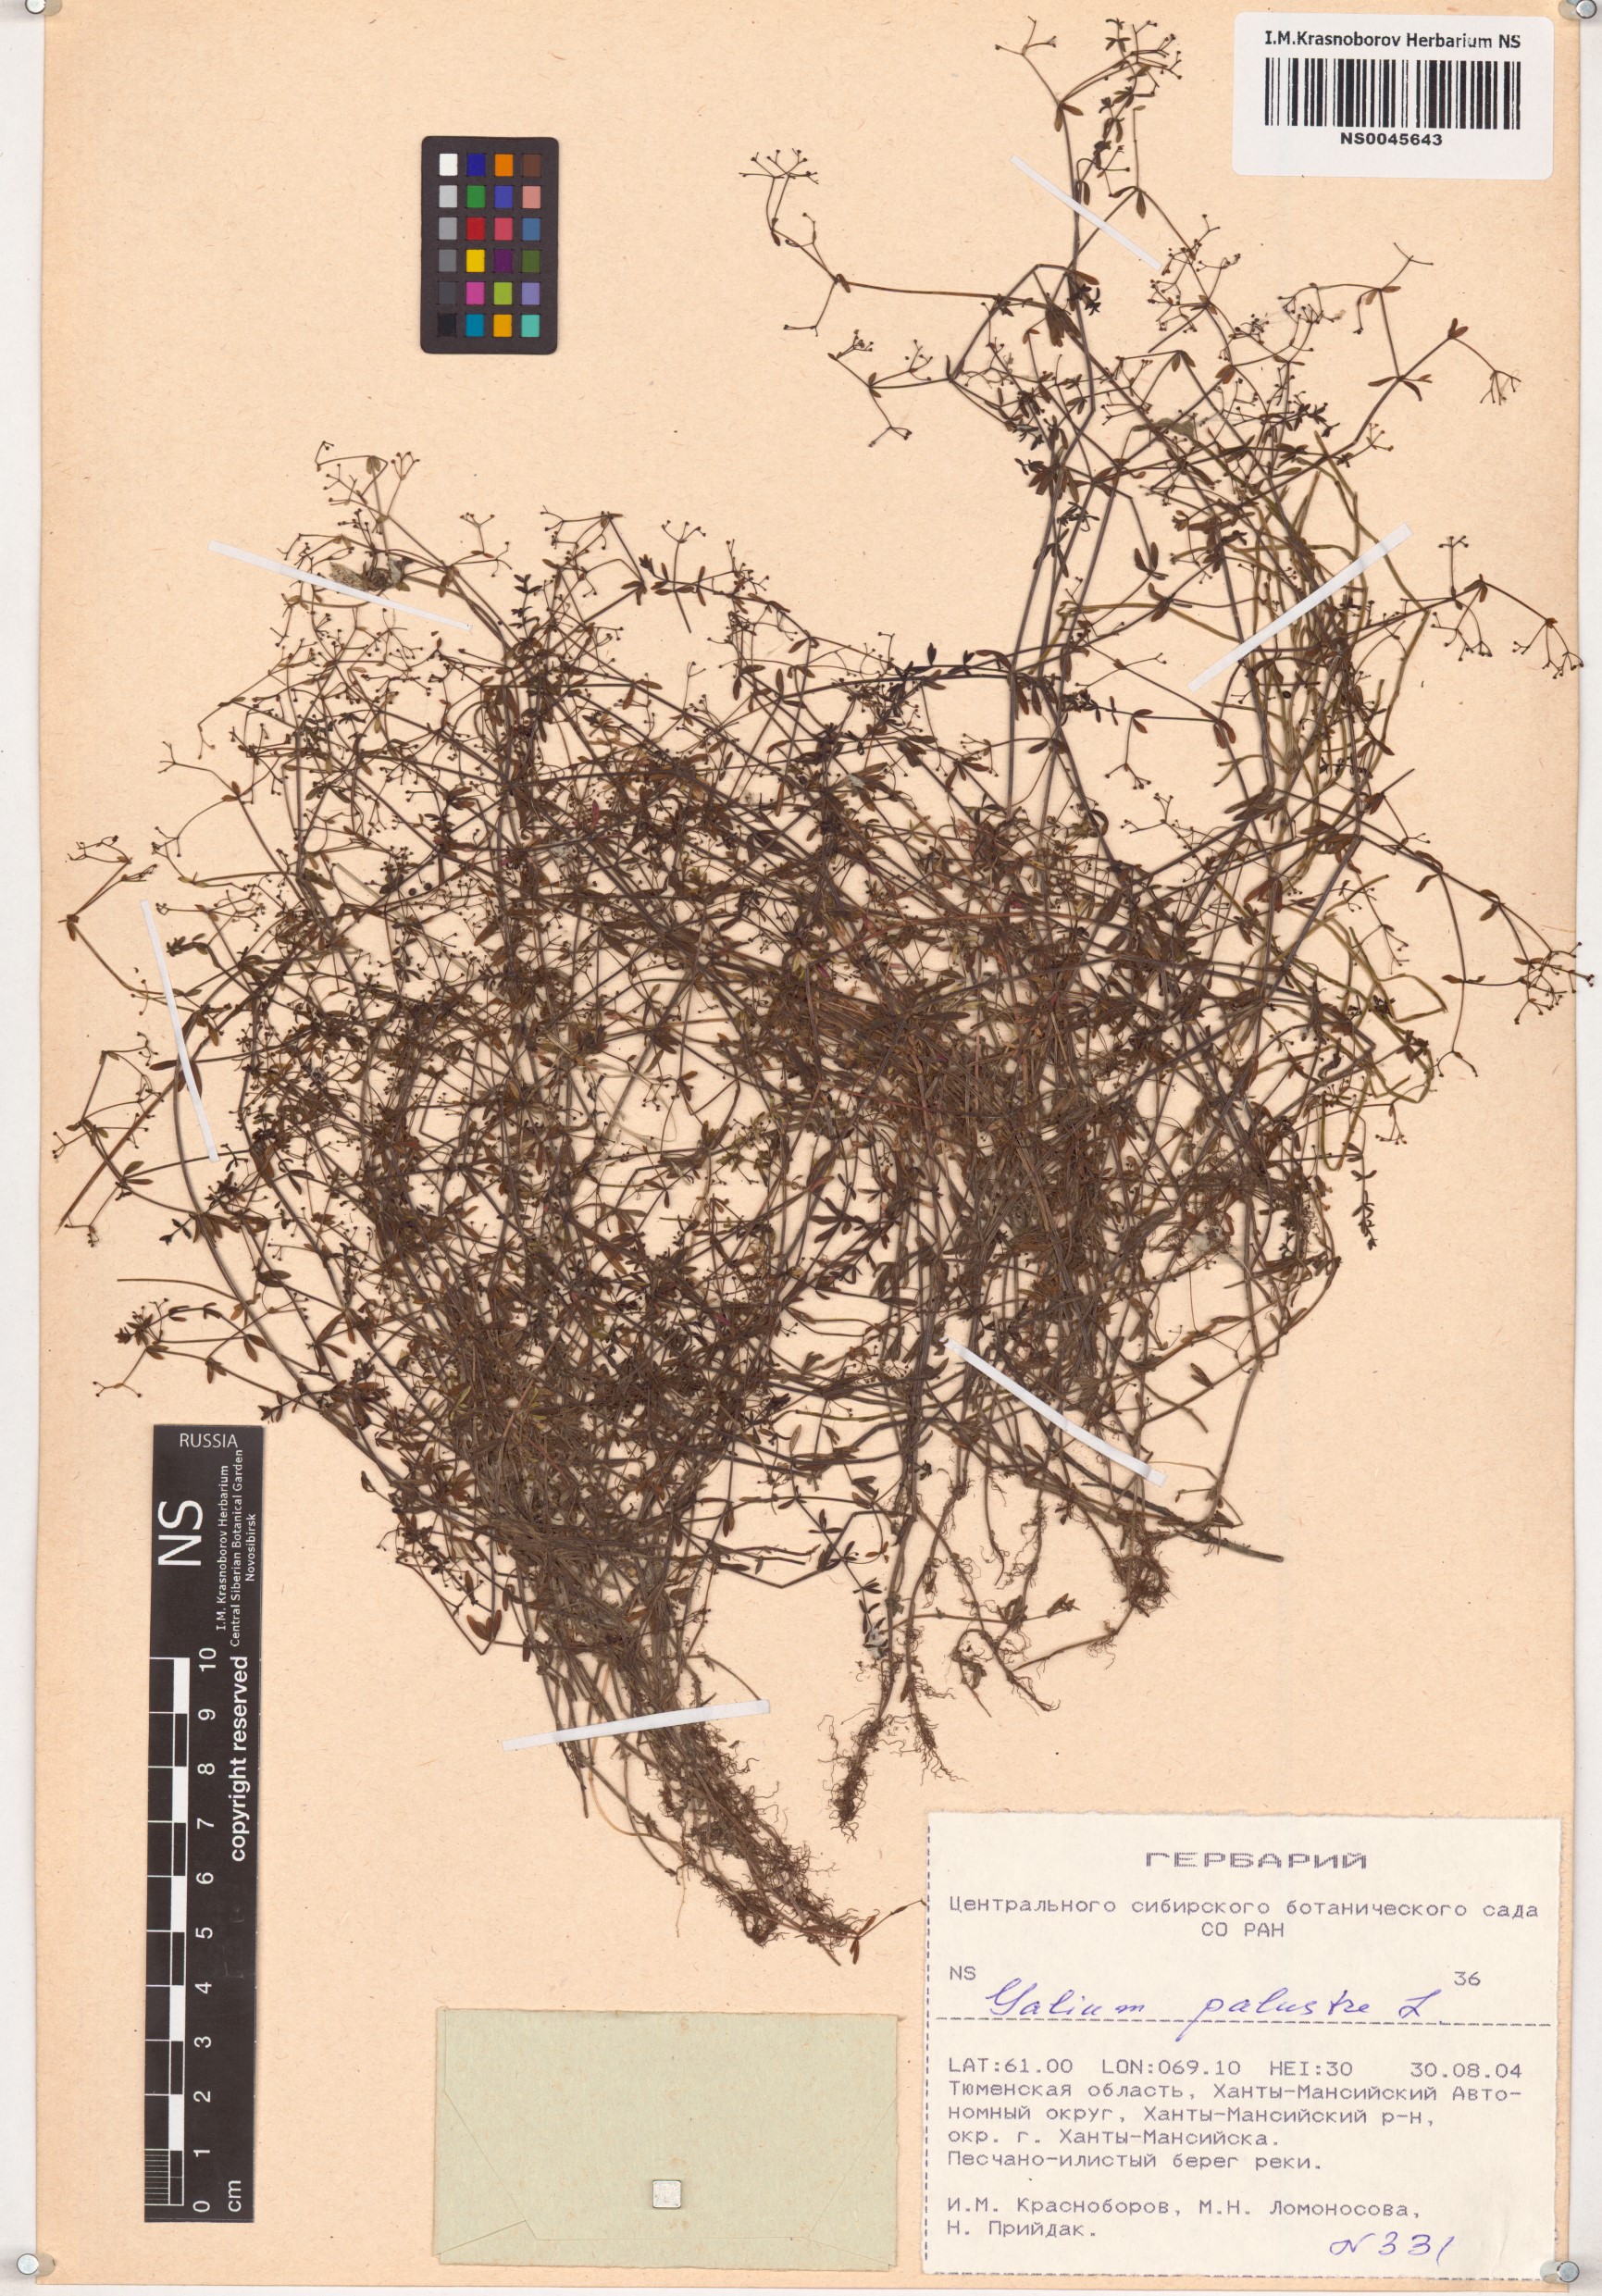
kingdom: Plantae
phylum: Tracheophyta
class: Magnoliopsida
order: Gentianales
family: Rubiaceae
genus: Galium
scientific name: Galium palustre
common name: Common marsh-bedstraw
